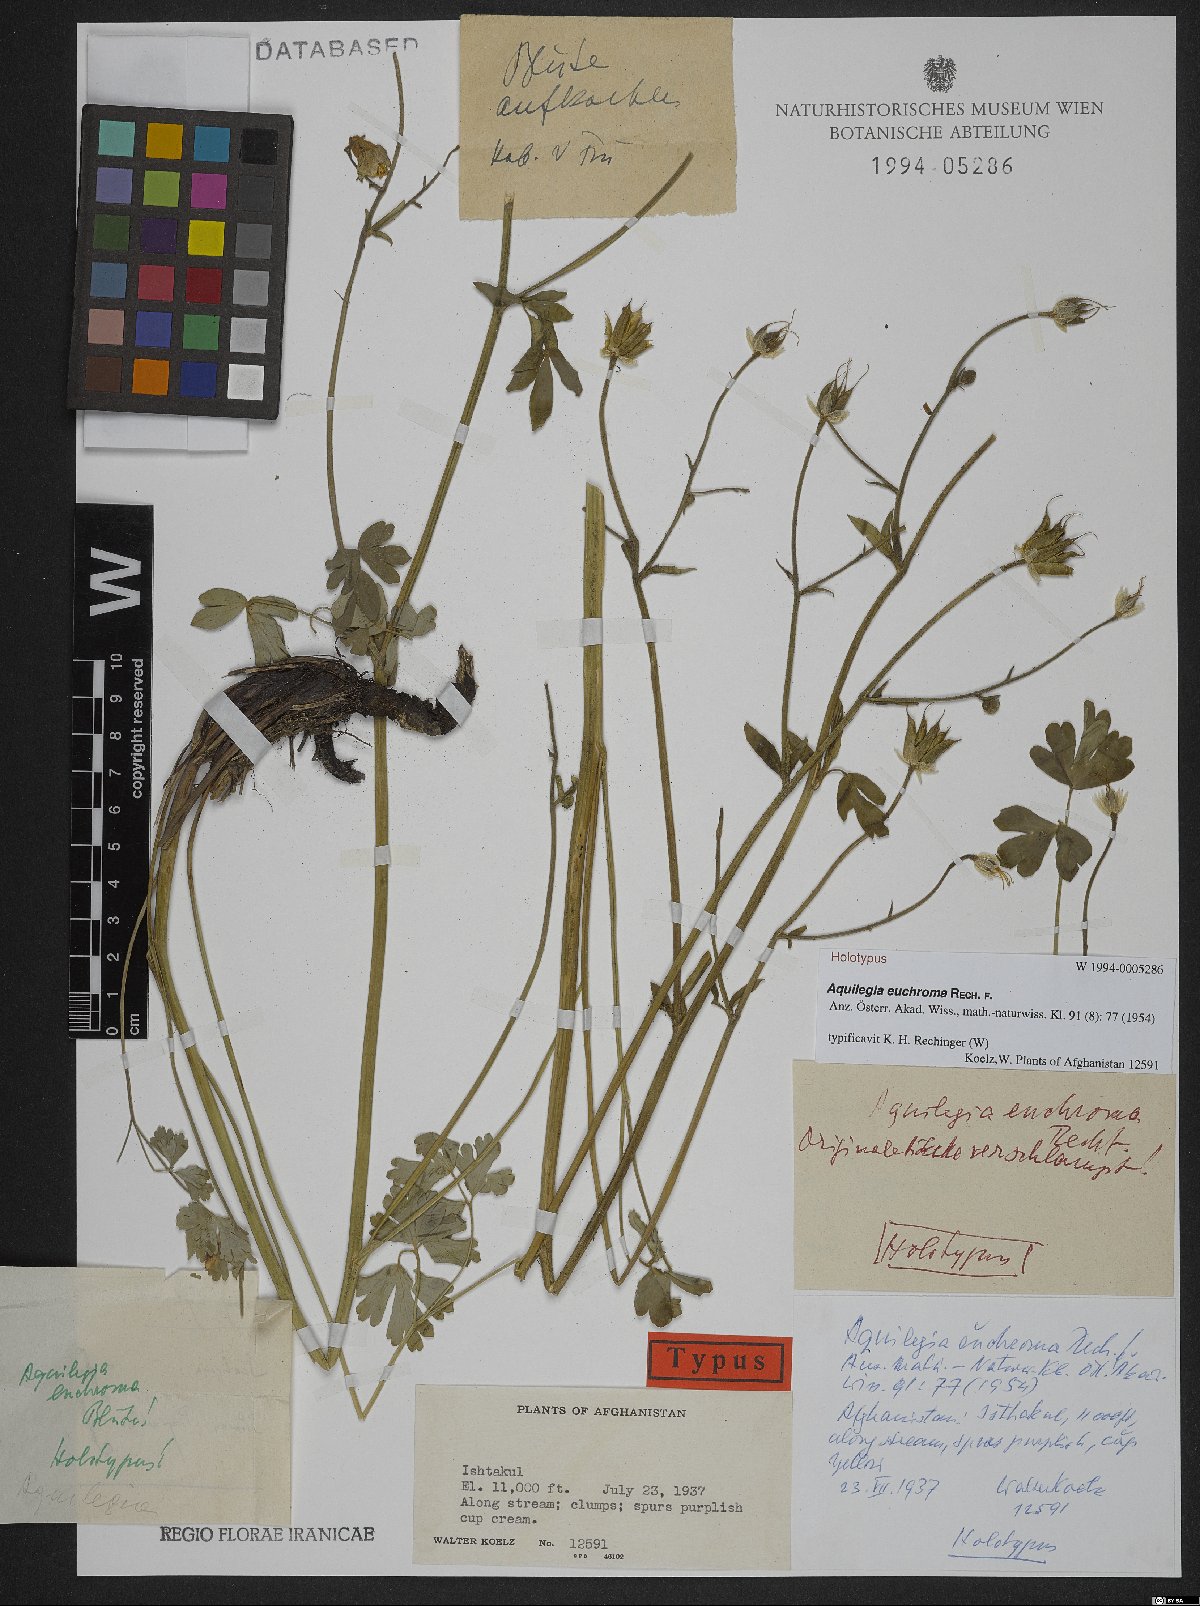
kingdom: Plantae
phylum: Tracheophyta
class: Magnoliopsida
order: Ranunculales
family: Ranunculaceae
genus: Aquilegia
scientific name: Aquilegia moorcroftiana
